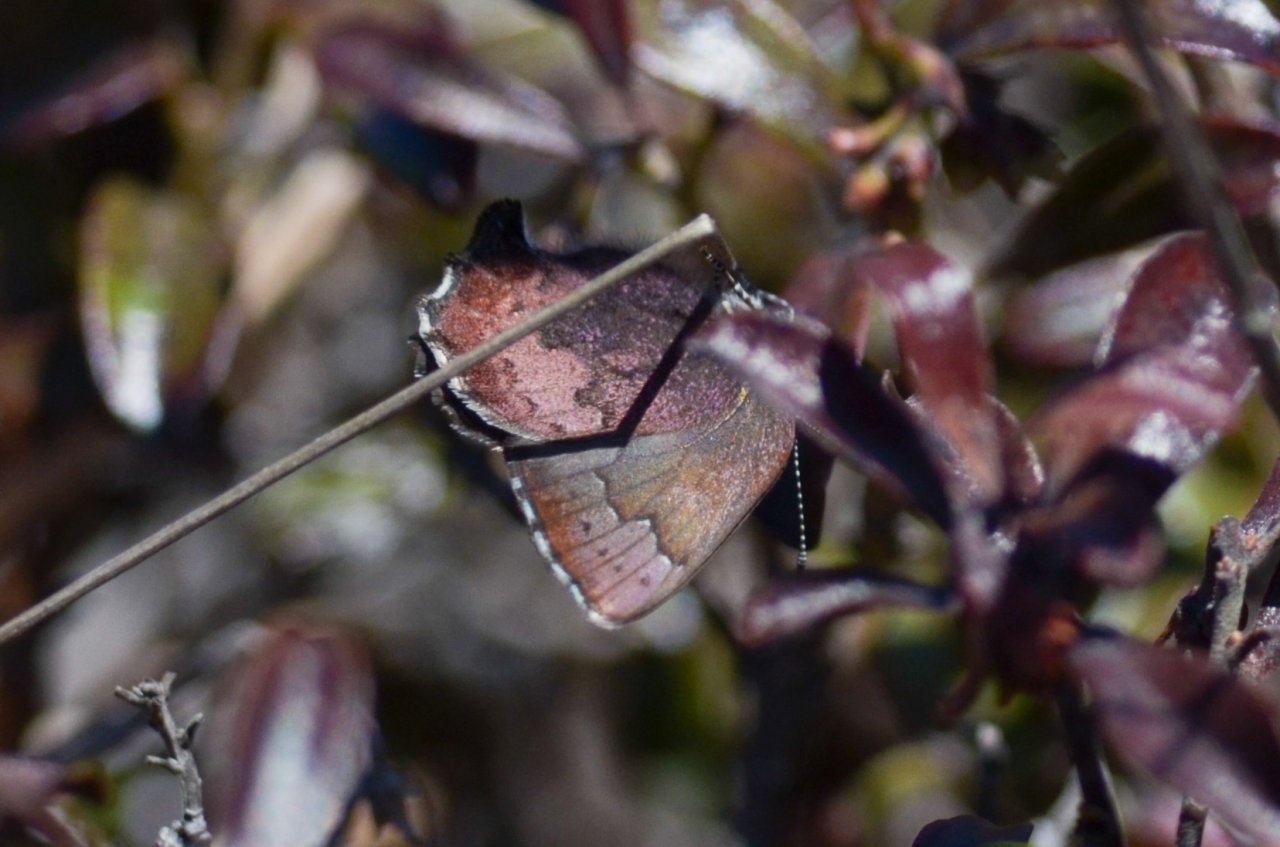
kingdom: Animalia
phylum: Arthropoda
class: Insecta
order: Lepidoptera
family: Lycaenidae
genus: Incisalia
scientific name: Incisalia irioides
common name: Brown Elfin
